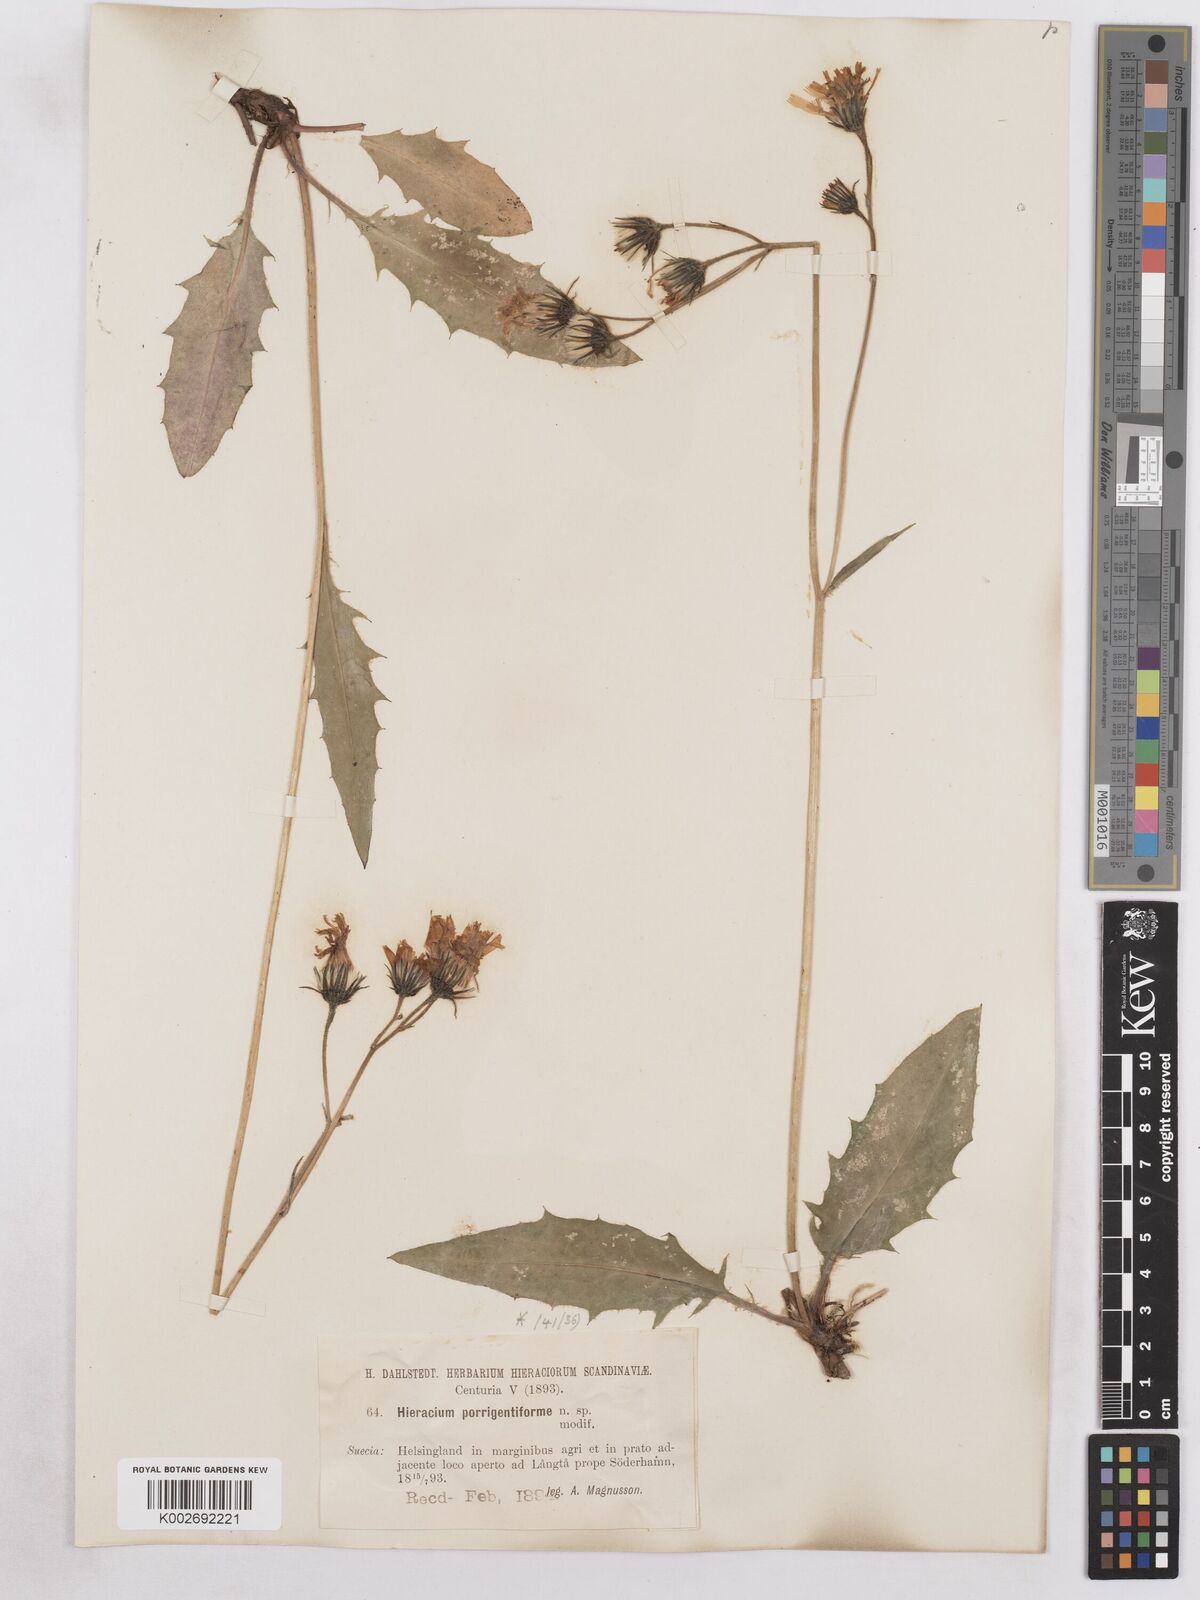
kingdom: Plantae
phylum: Tracheophyta
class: Magnoliopsida
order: Asterales
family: Asteraceae
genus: Hieracium
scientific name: Hieracium diaphanoides
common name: Fine-bracted hawkweed
